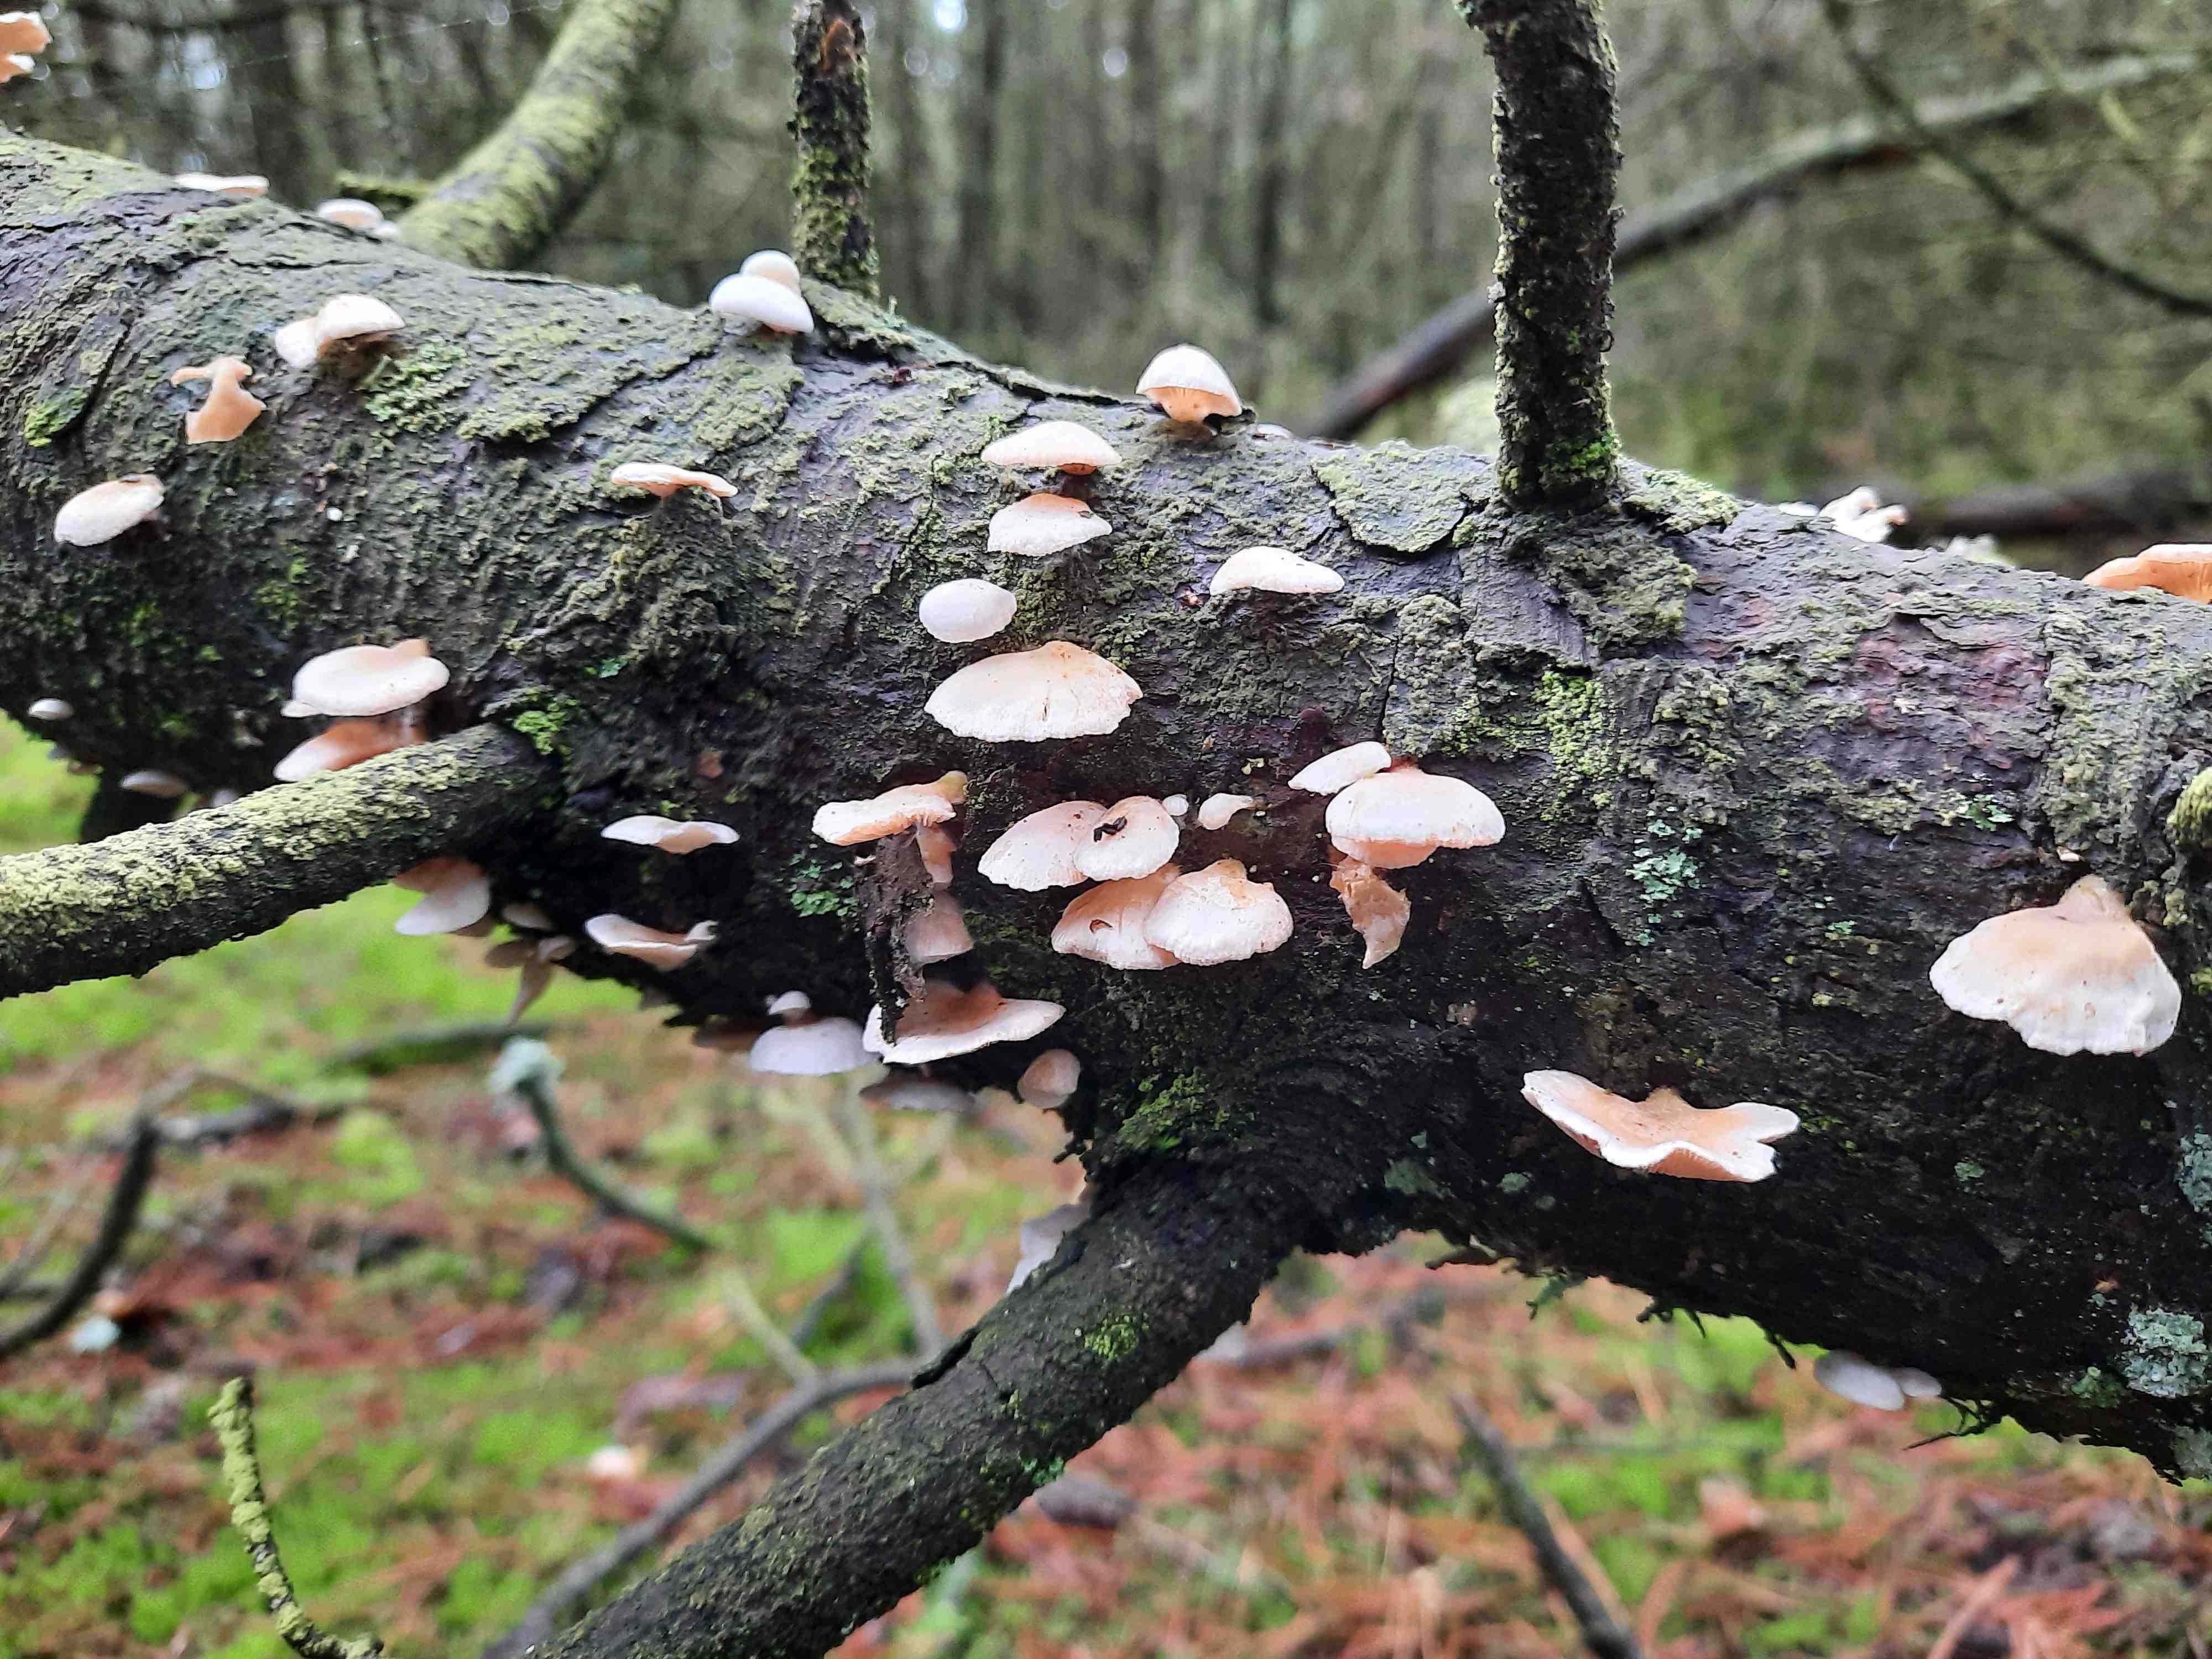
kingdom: Fungi
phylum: Basidiomycota
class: Agaricomycetes
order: Agaricales
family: Mycenaceae
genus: Panellus
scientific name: Panellus mitis
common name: mild epaulethat
